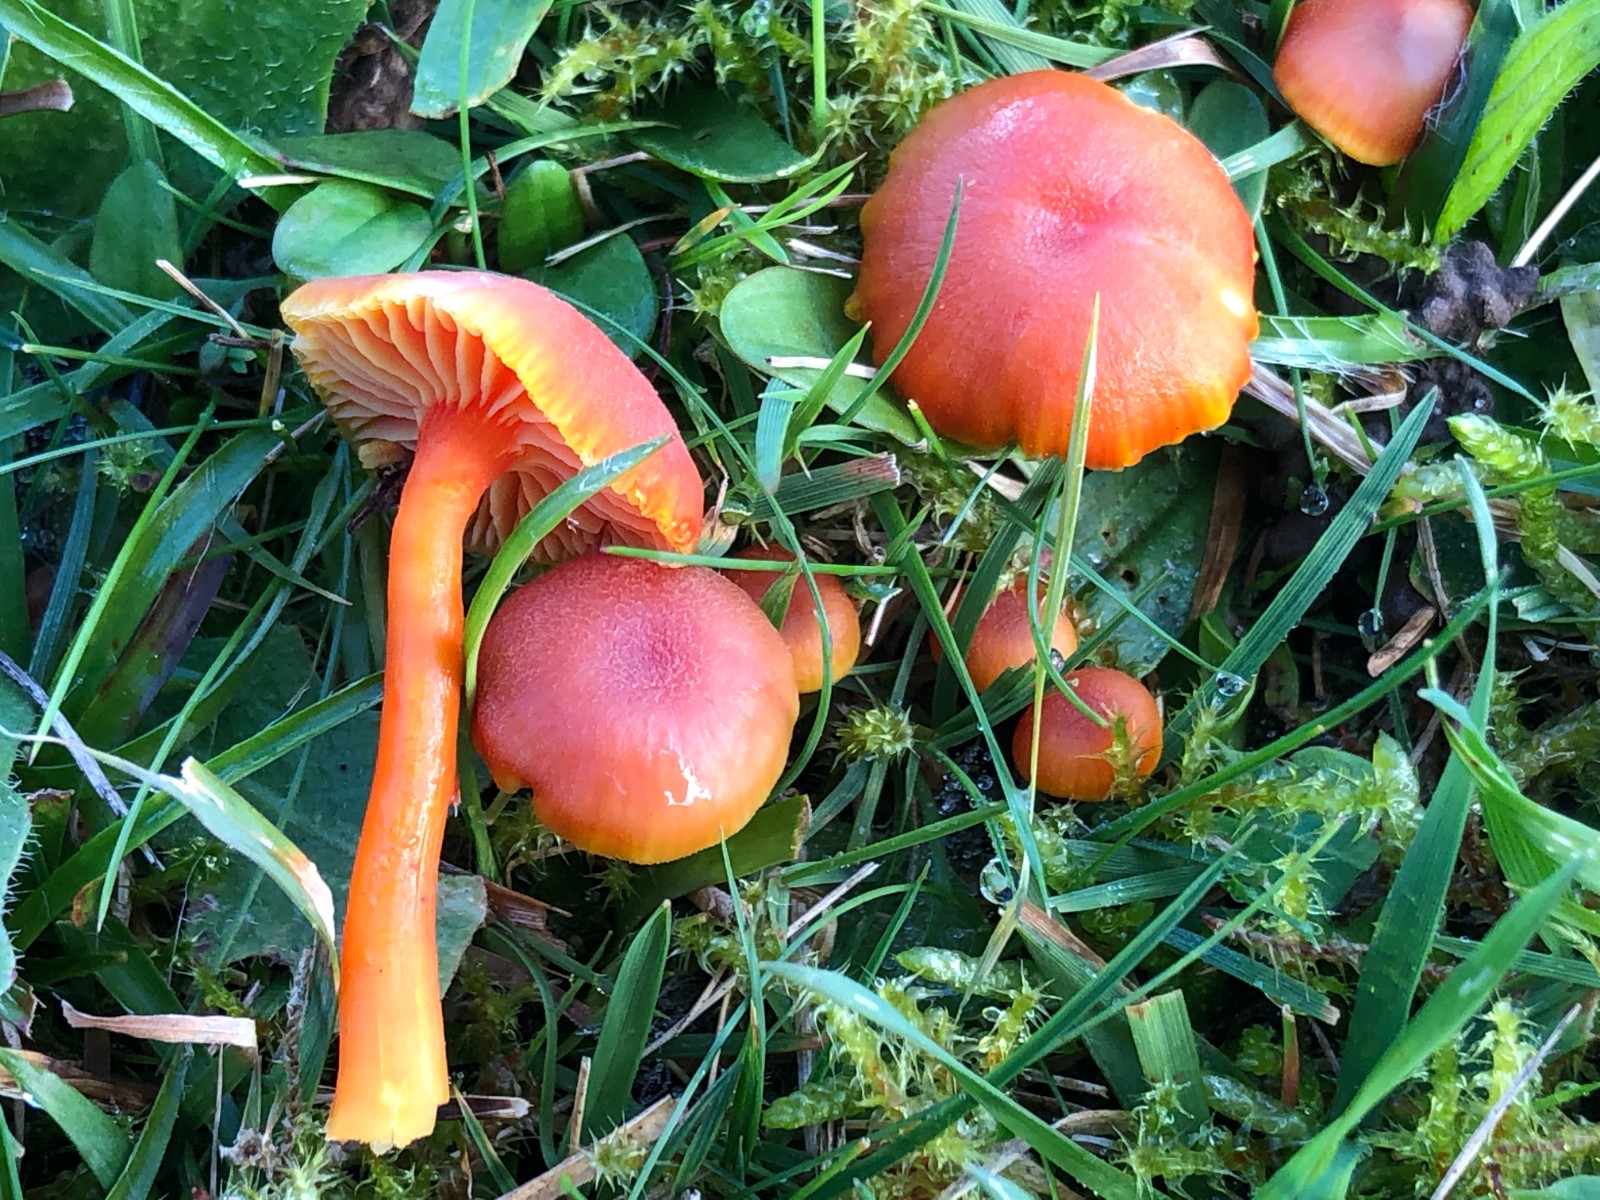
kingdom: Fungi
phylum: Basidiomycota
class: Agaricomycetes
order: Agaricales
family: Hygrophoraceae
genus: Hygrocybe
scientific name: Hygrocybe miniata
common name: mønje-vokshat
